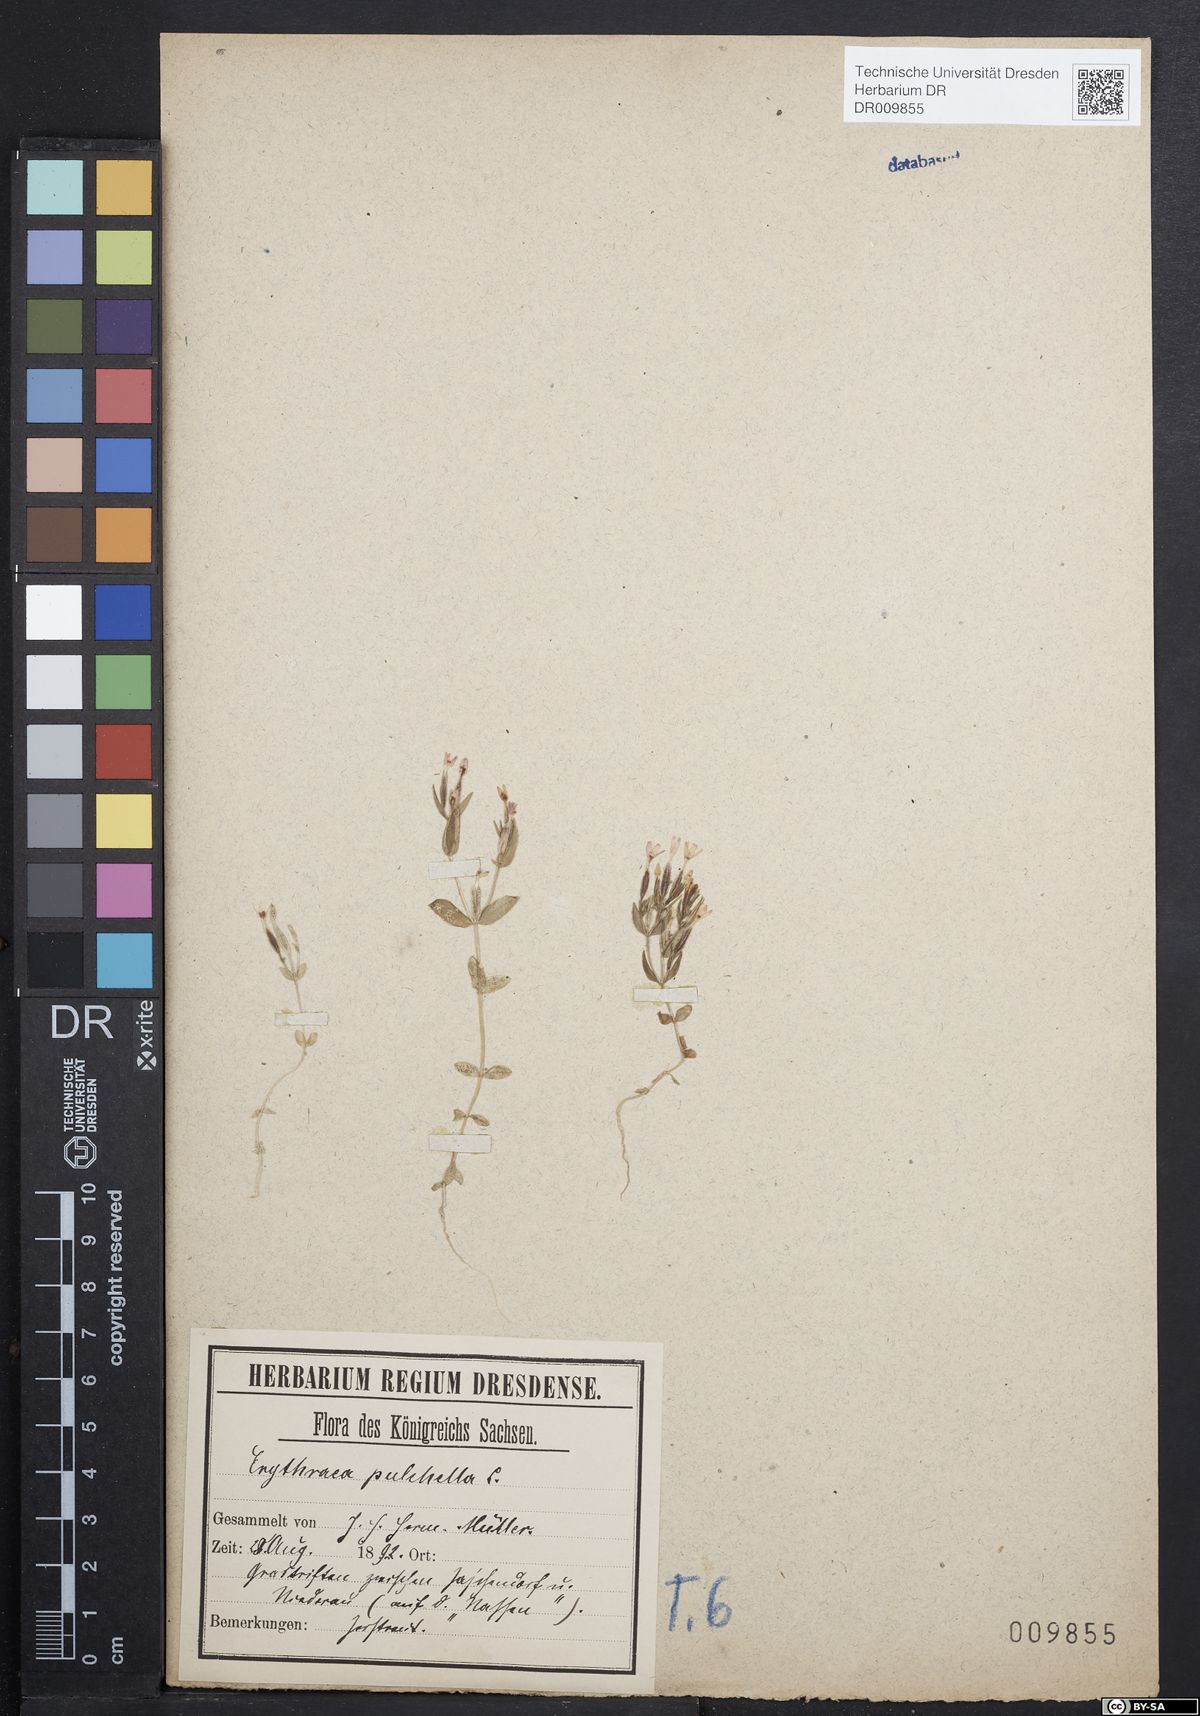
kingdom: Plantae
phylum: Tracheophyta
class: Magnoliopsida
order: Gentianales
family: Gentianaceae
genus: Centaurium
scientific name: Centaurium pulchellum
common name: Lesser centaury
